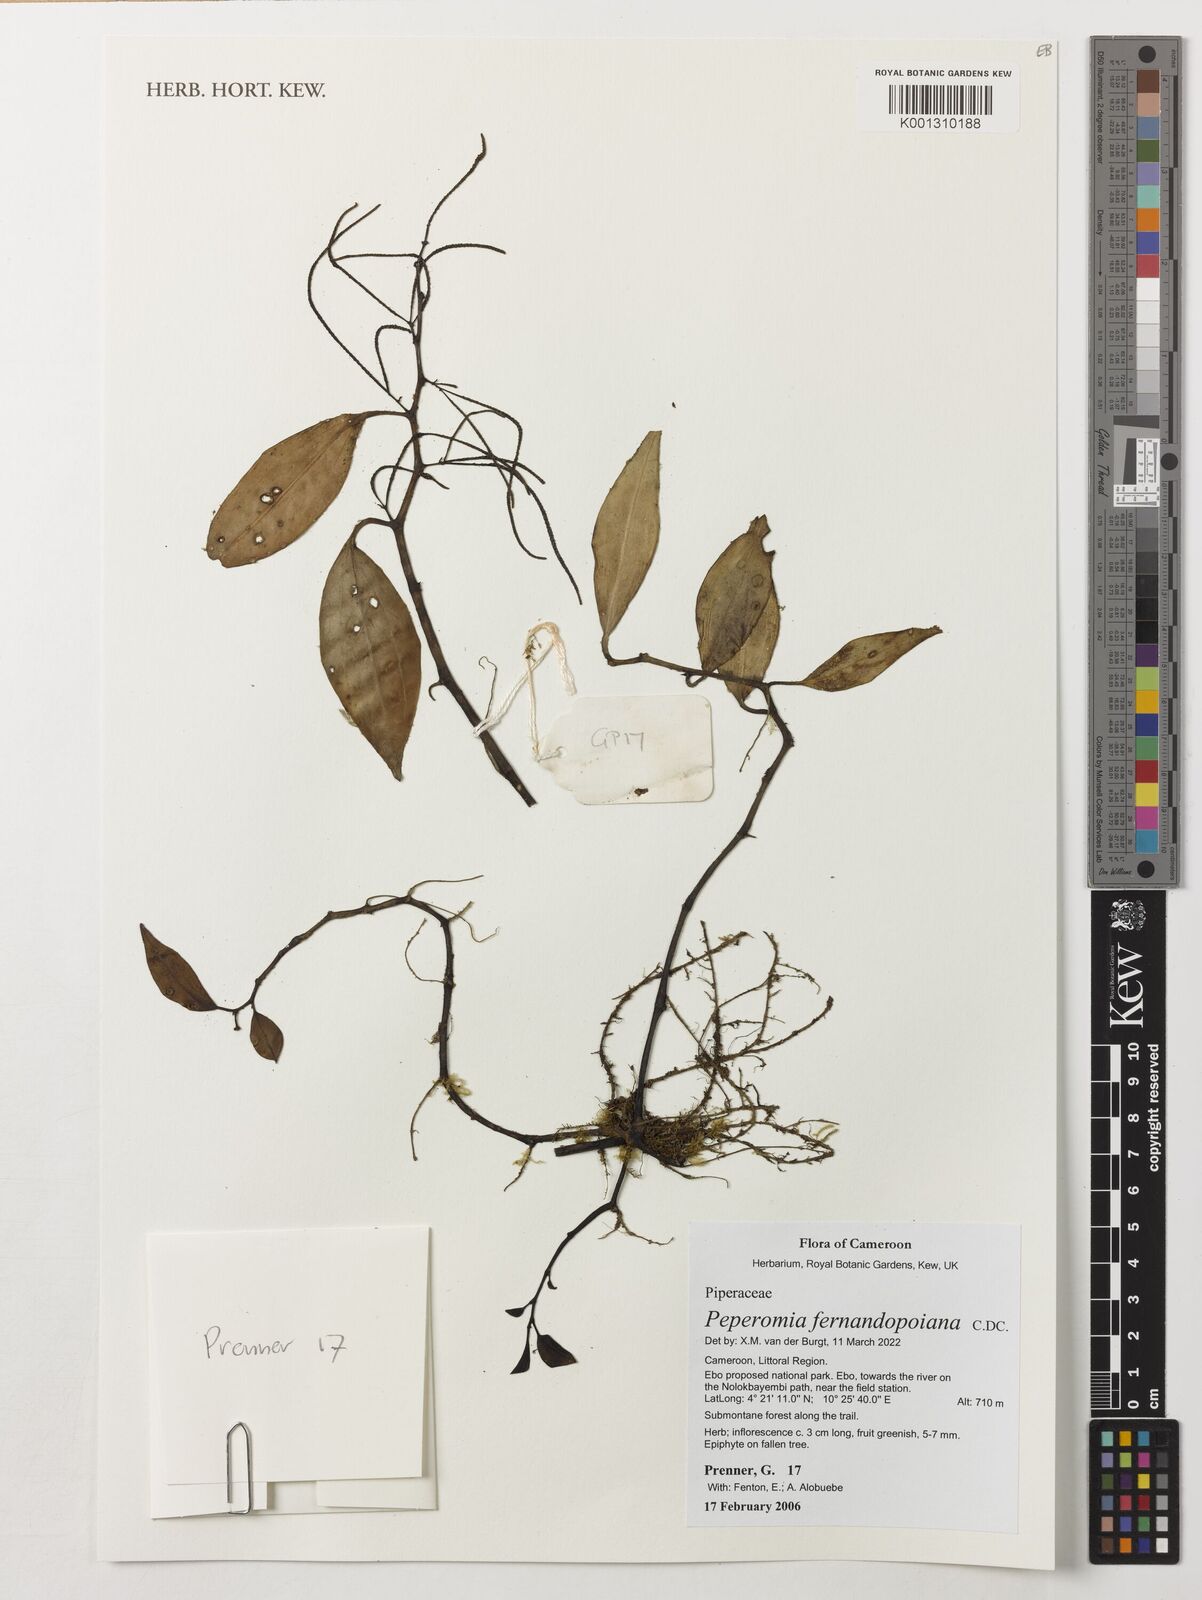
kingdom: Plantae
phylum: Tracheophyta
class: Magnoliopsida
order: Piperales
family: Piperaceae
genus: Peperomia
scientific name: Peperomia fernandopoiana
